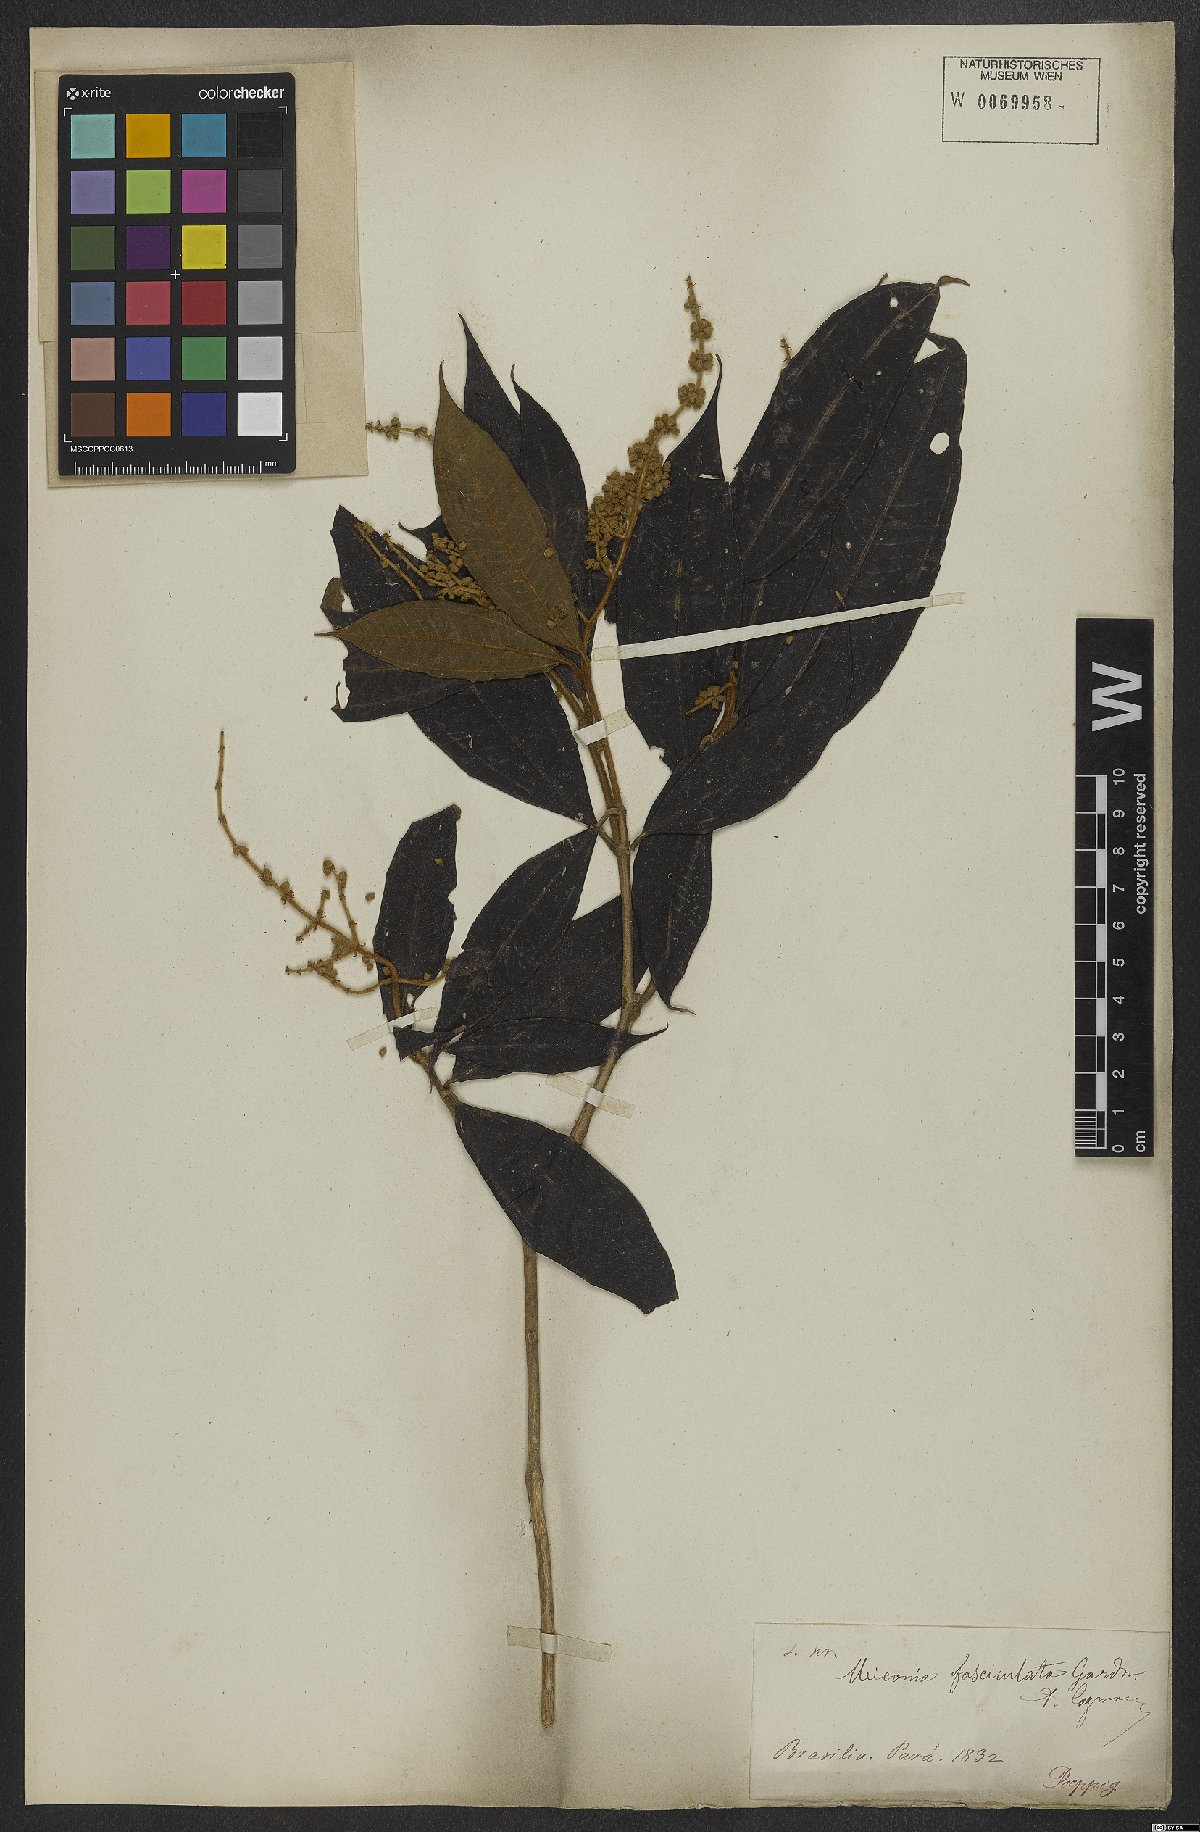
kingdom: Plantae
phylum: Tracheophyta
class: Magnoliopsida
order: Myrtales
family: Melastomataceae
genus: Miconia
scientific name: Miconia fasciculata
